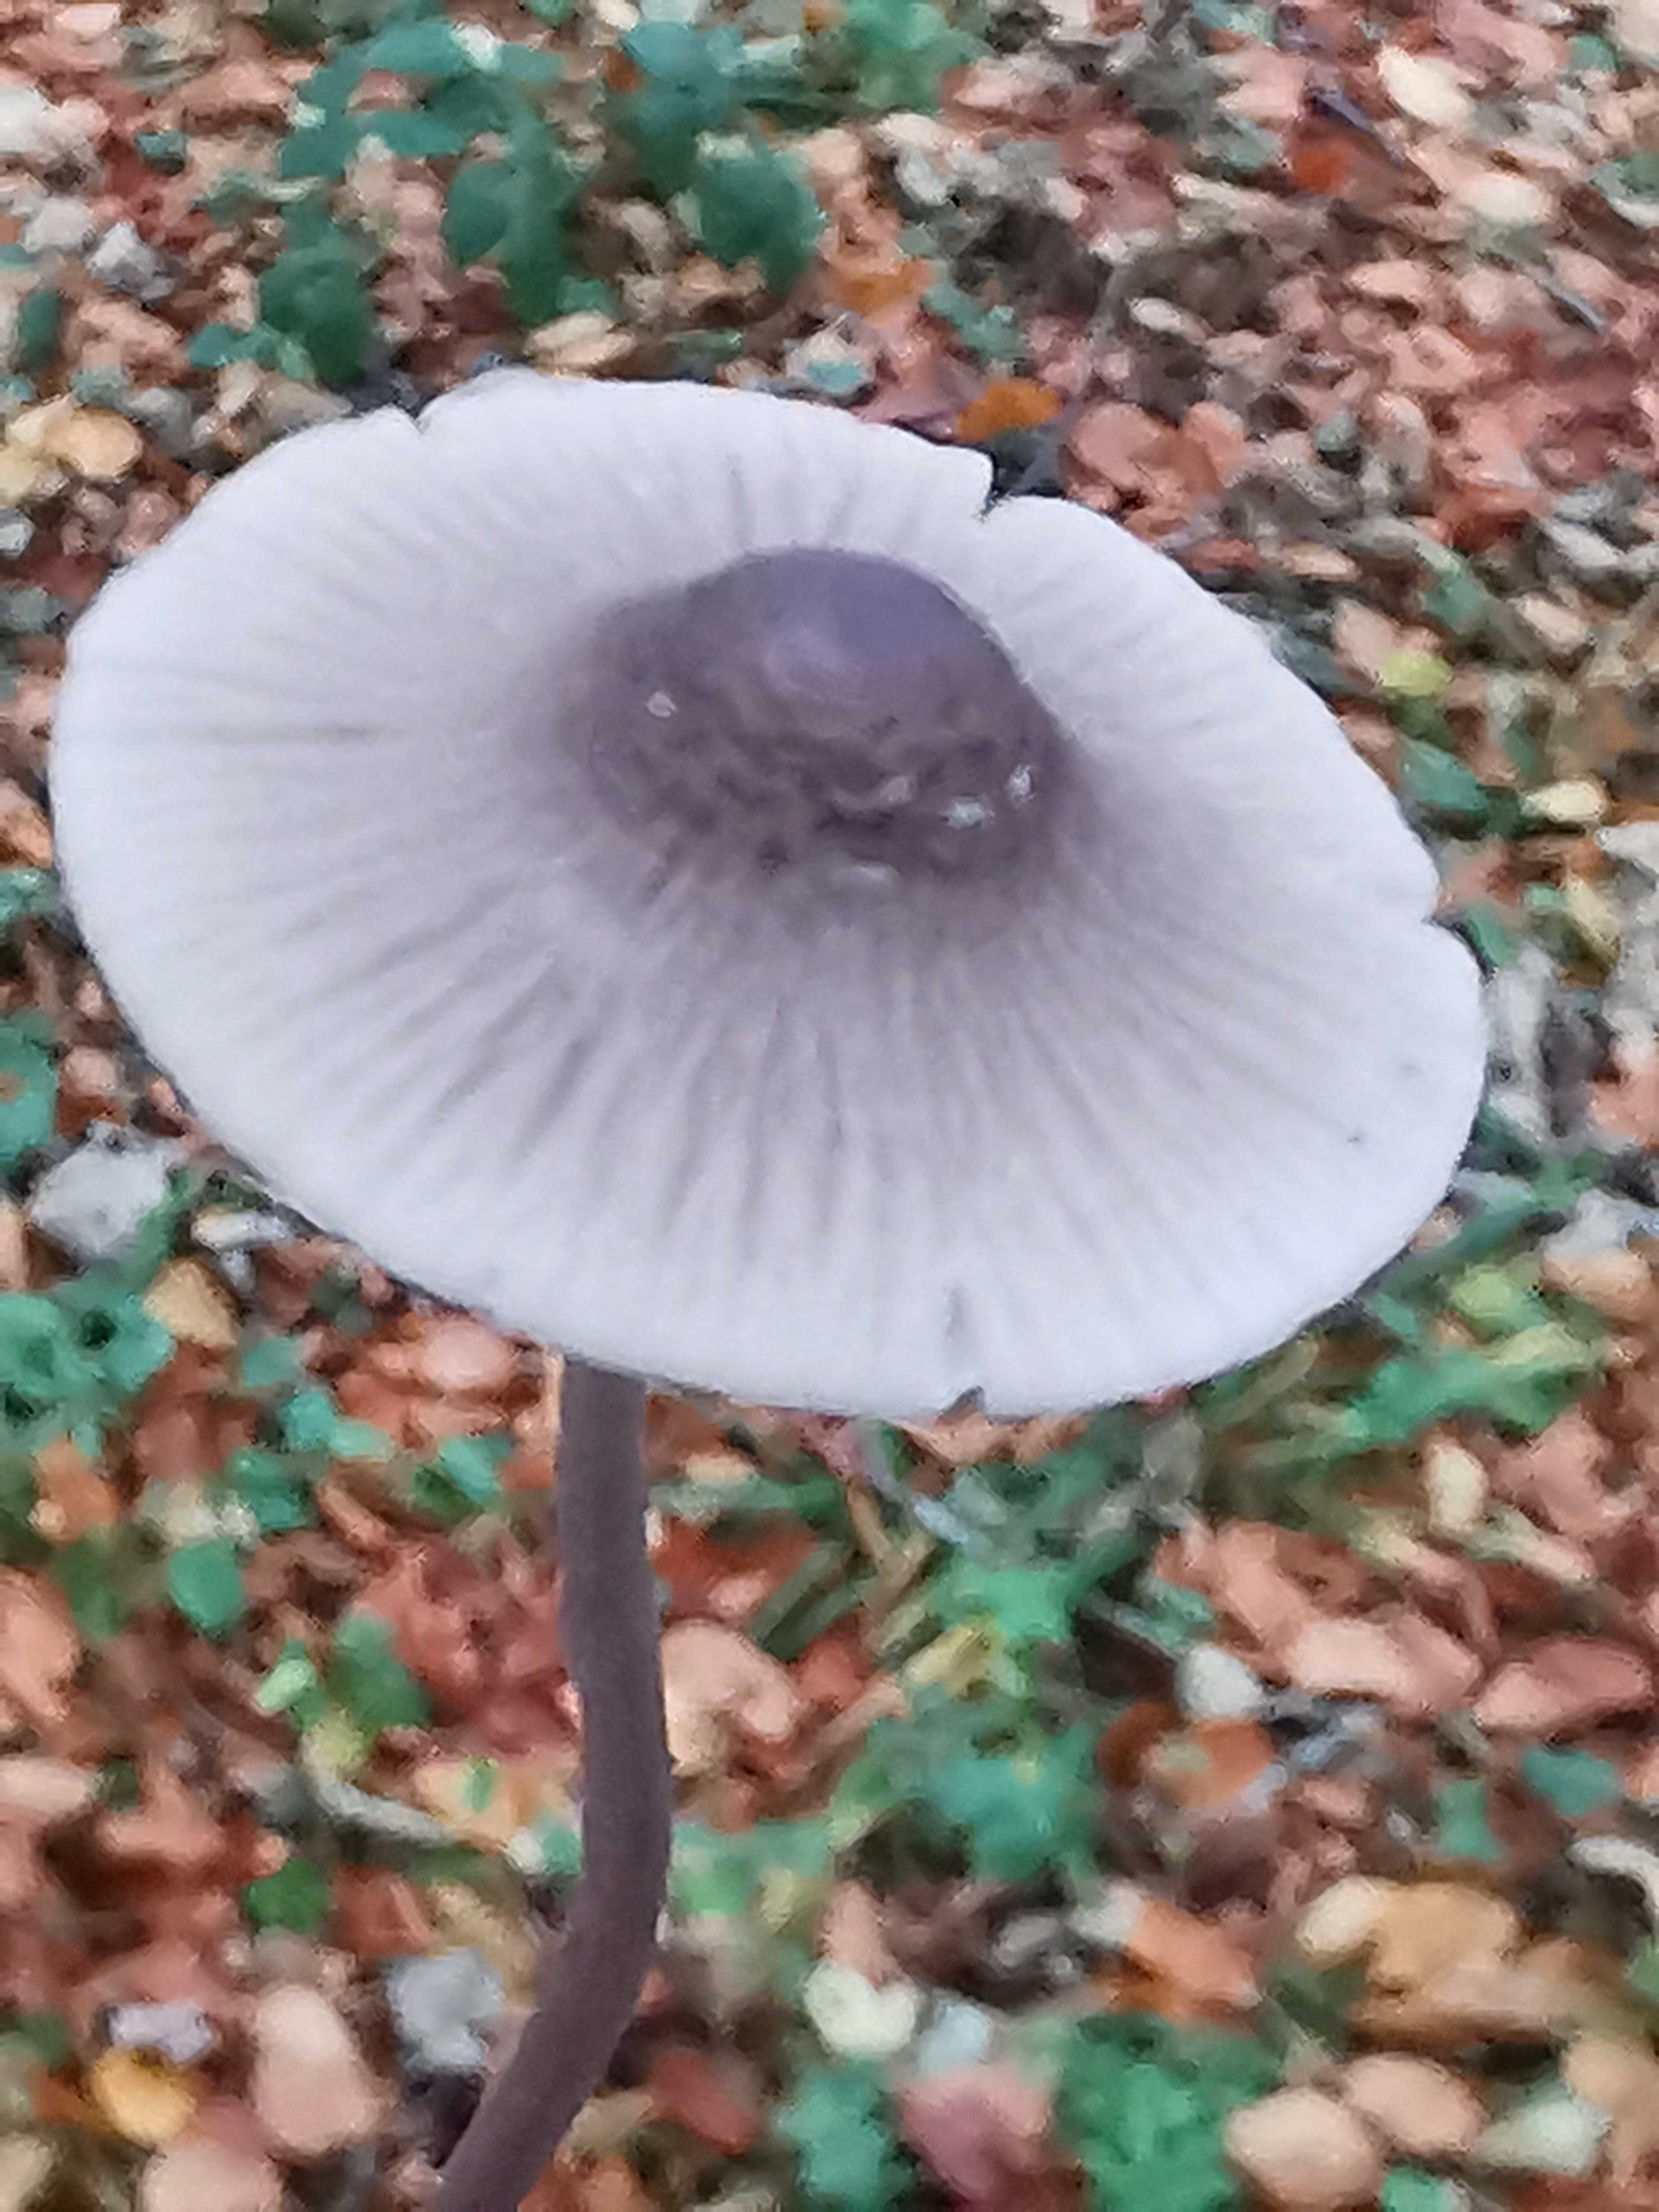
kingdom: Fungi
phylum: Basidiomycota
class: Agaricomycetes
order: Agaricales
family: Mycenaceae
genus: Mycena
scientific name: Mycena polygramma
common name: mangestribet huesvamp
